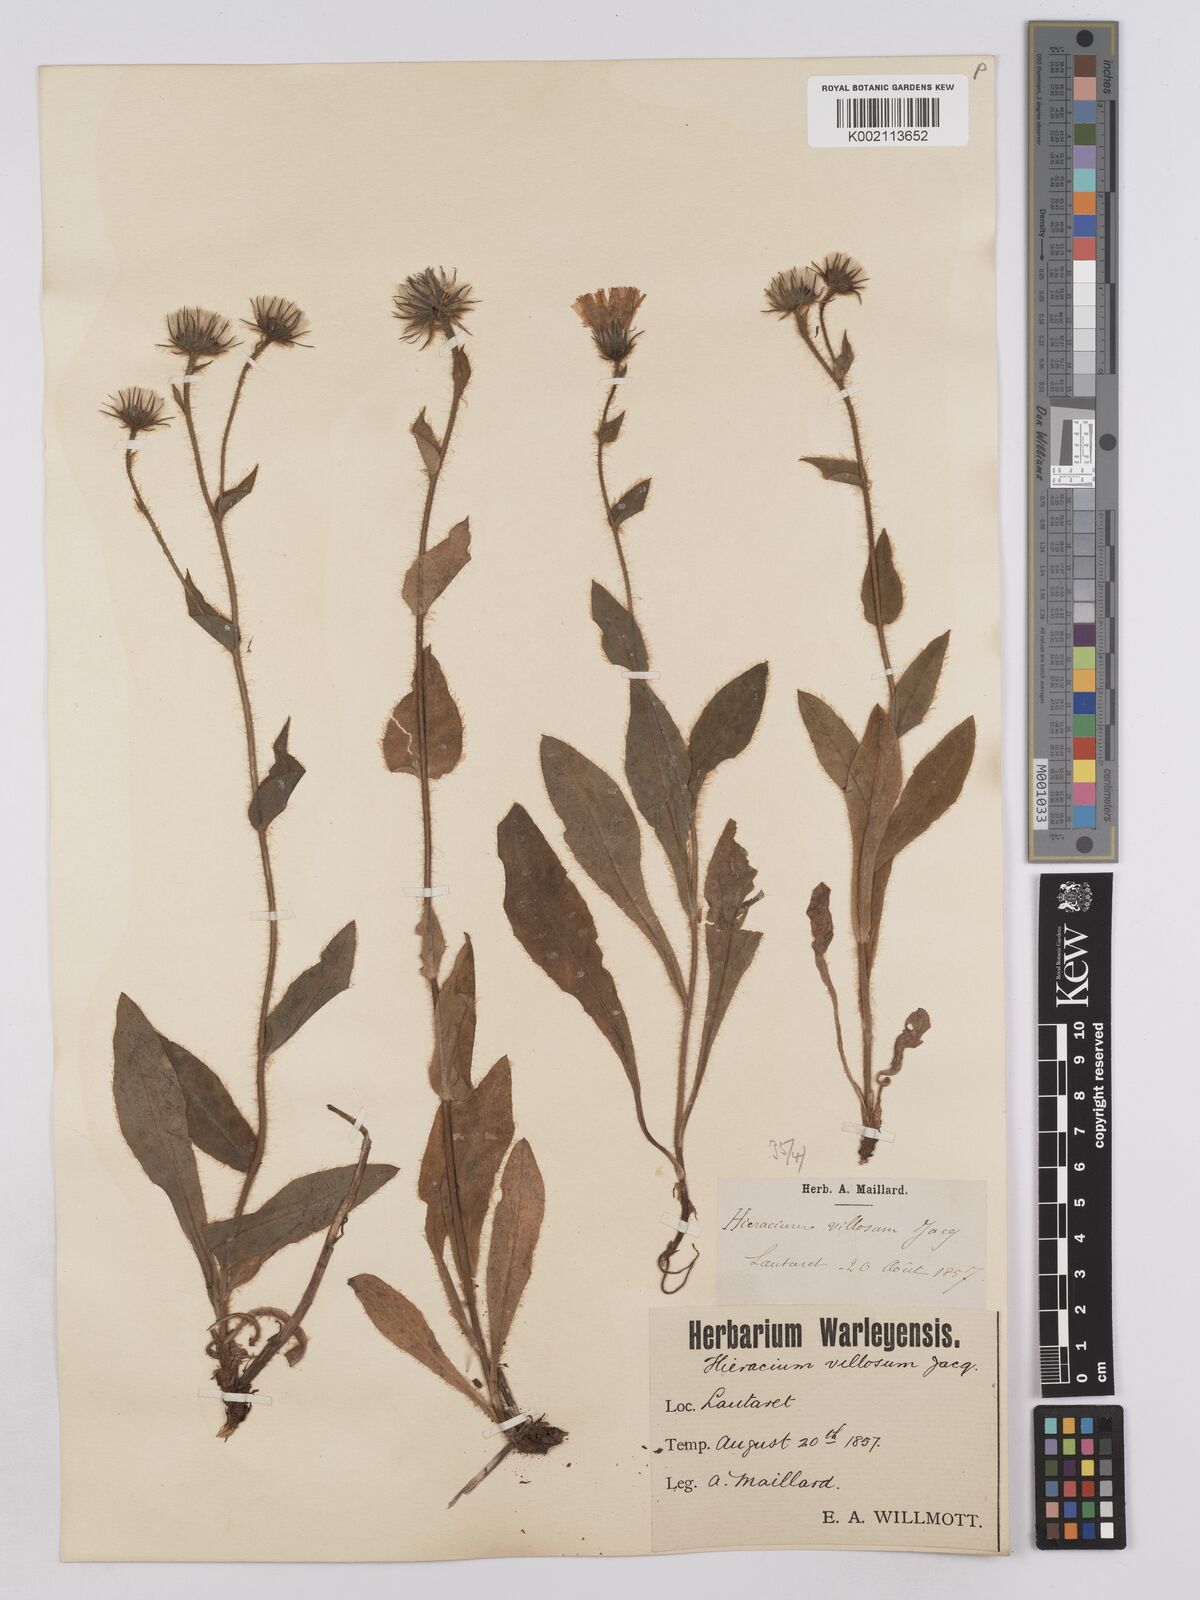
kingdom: Plantae
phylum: Tracheophyta
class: Magnoliopsida
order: Asterales
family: Asteraceae
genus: Hieracium
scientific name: Hieracium villosum
